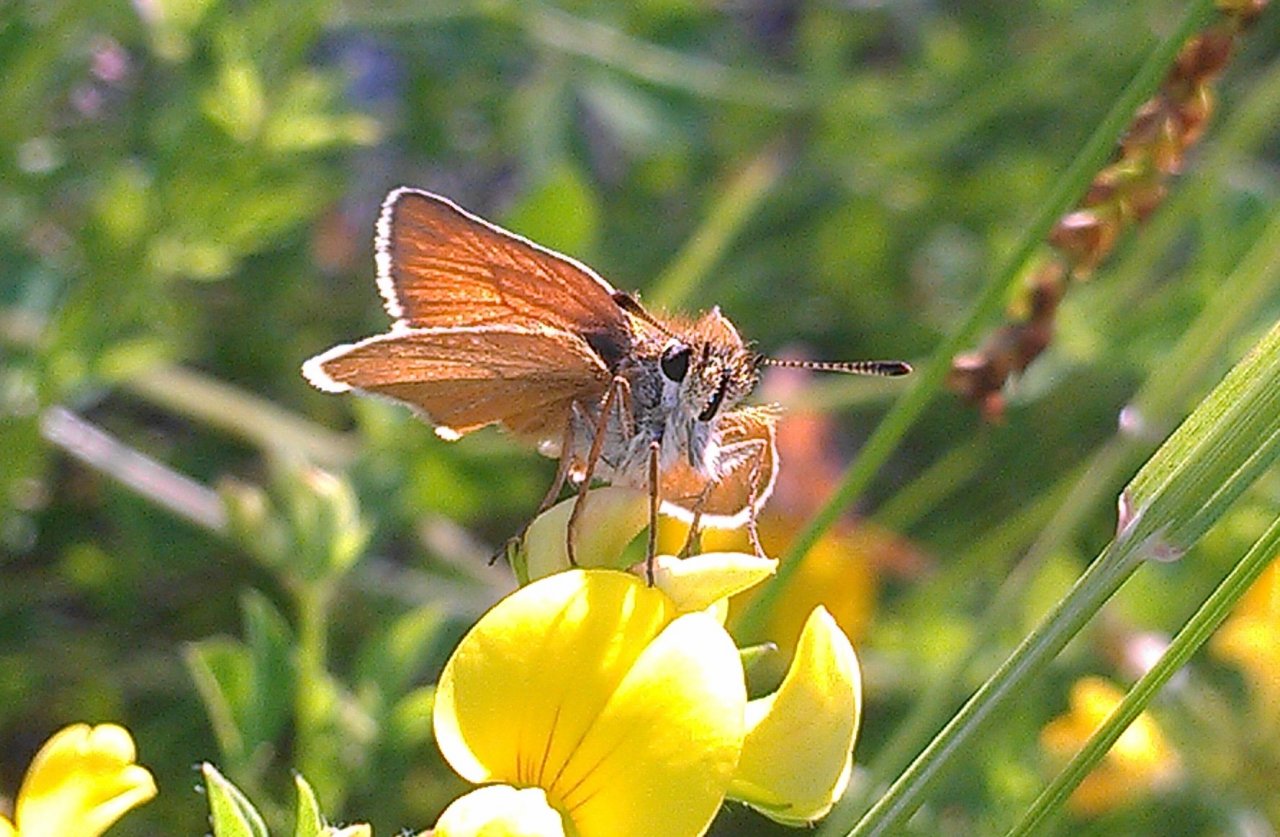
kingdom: Animalia
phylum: Arthropoda
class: Insecta
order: Lepidoptera
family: Hesperiidae
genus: Thymelicus
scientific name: Thymelicus lineola
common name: European Skipper
